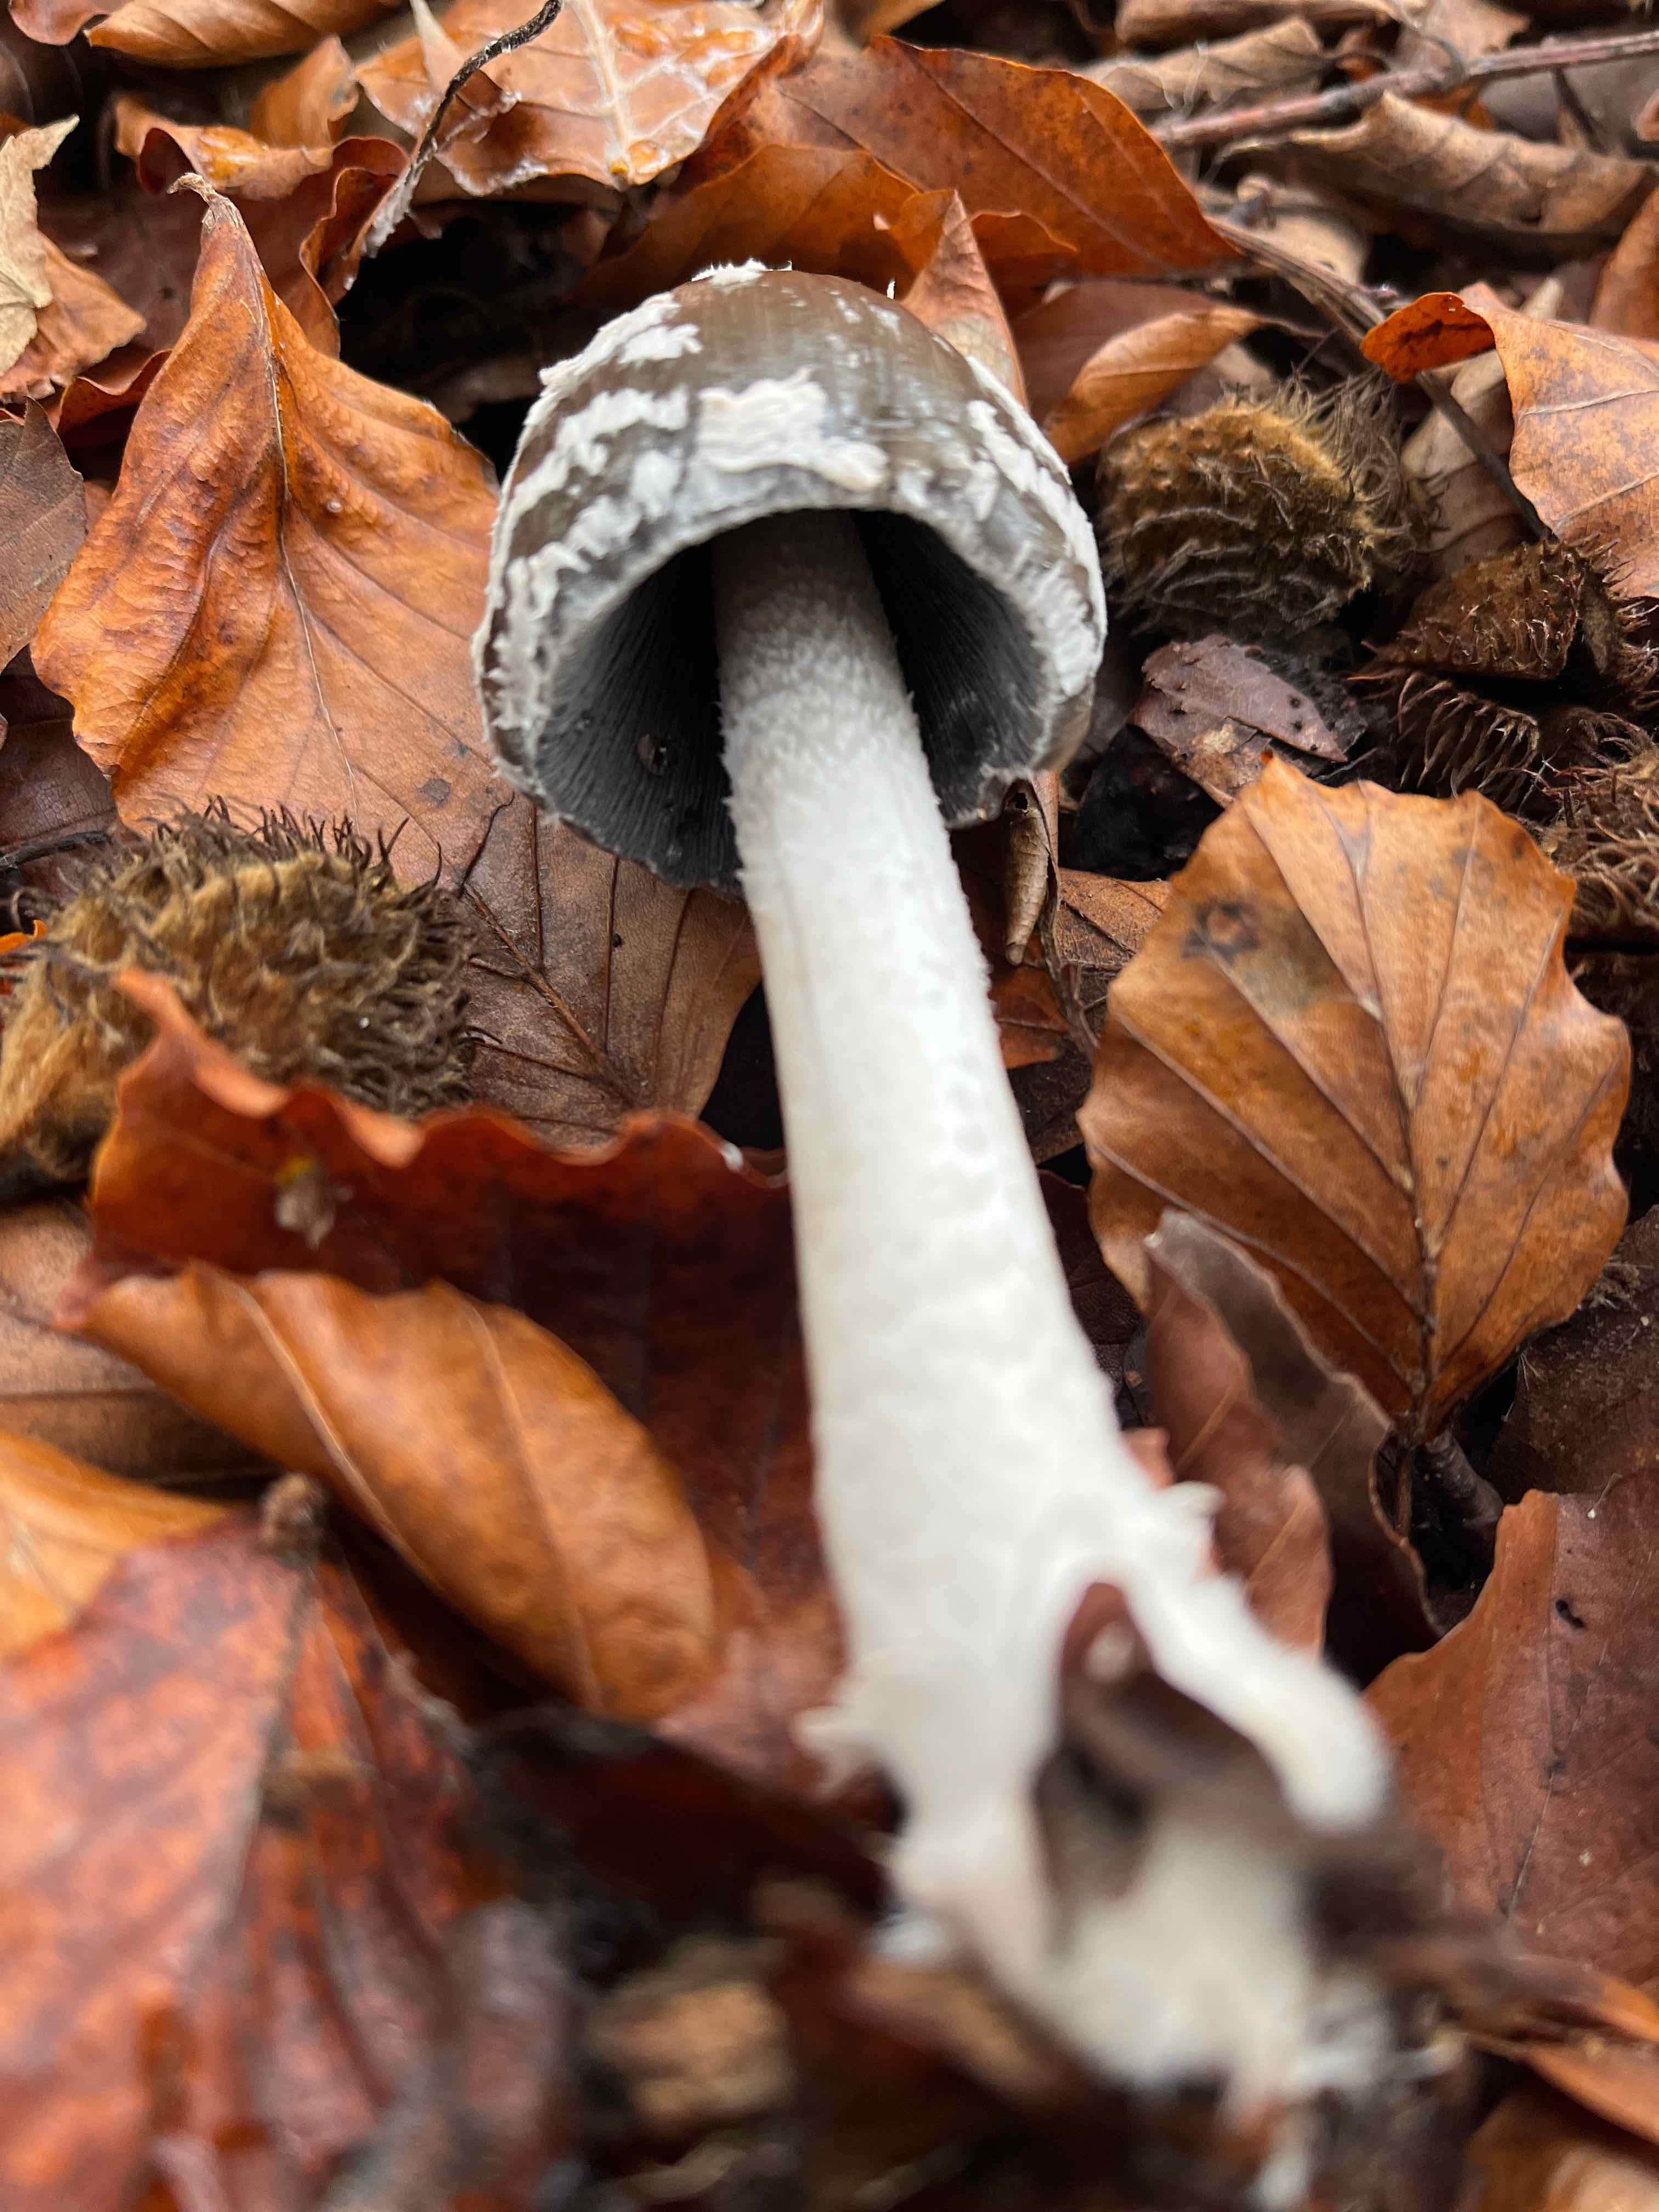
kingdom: Fungi
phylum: Basidiomycota
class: Agaricomycetes
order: Agaricales
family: Psathyrellaceae
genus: Coprinopsis
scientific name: Coprinopsis picacea
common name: skade-blækhat
